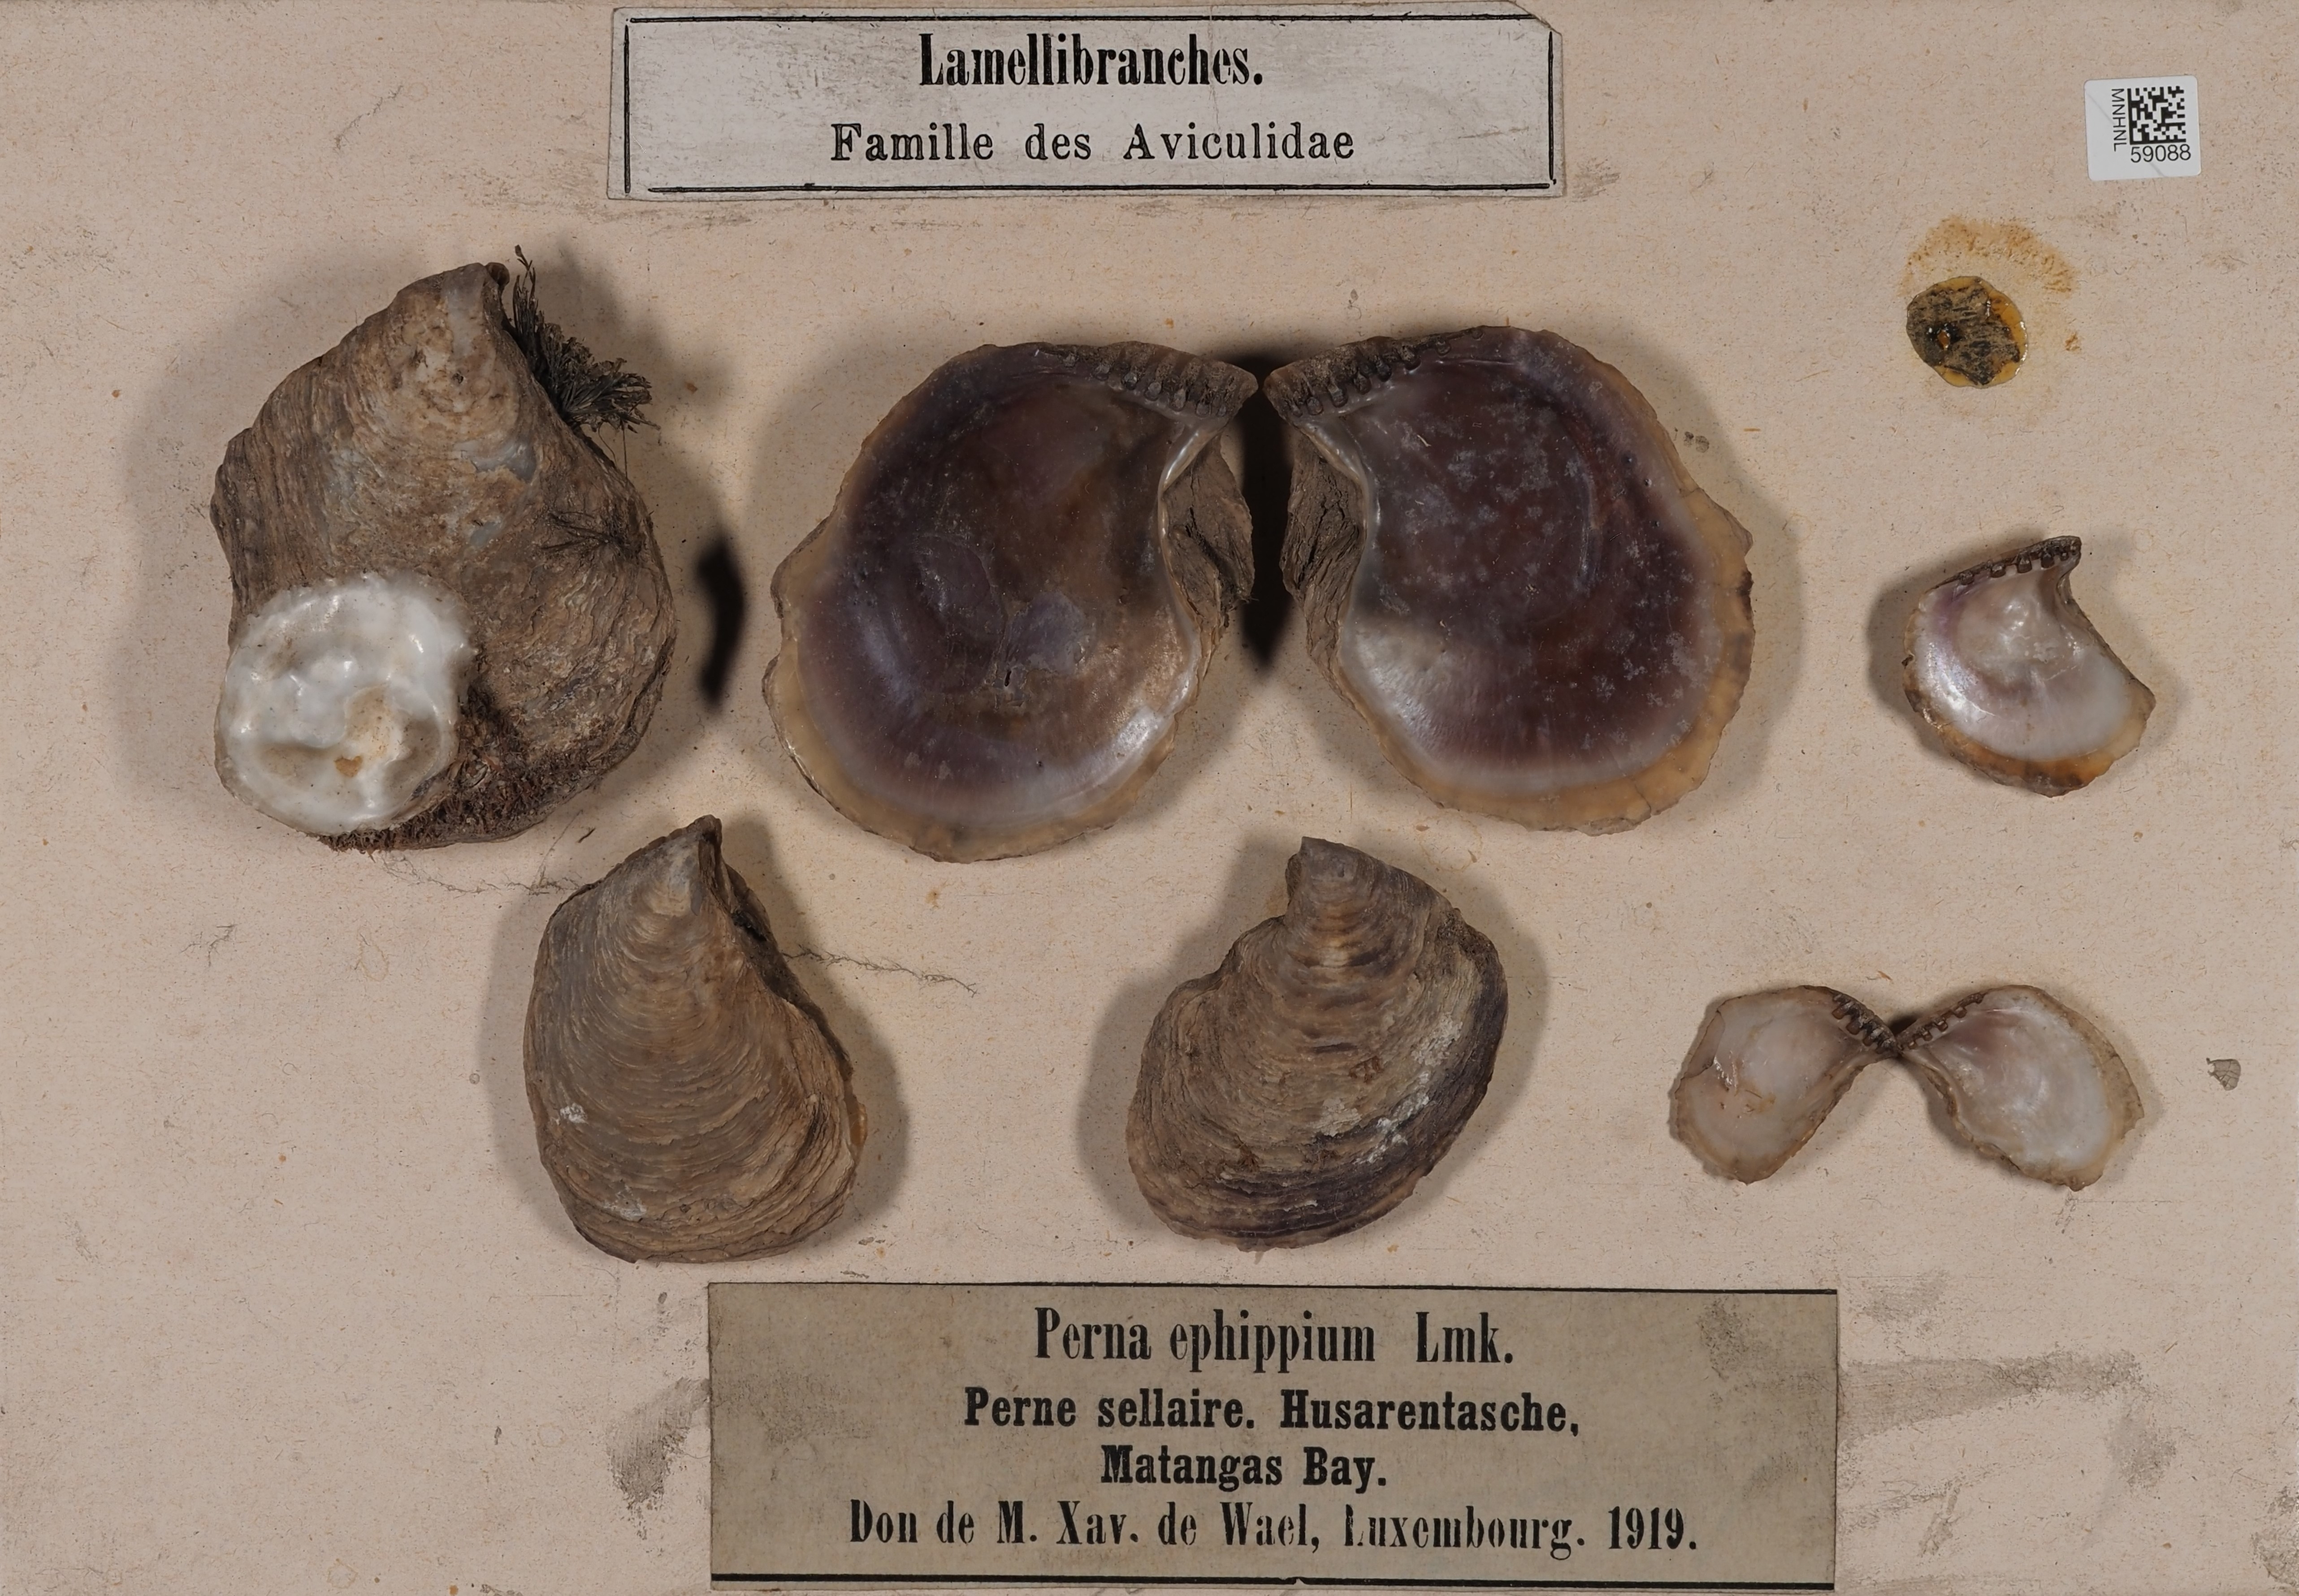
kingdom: Animalia
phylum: Mollusca
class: Bivalvia
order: Ostreida
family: Isognomonidae
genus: Isognomon
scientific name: Isognomon alatus
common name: Flat tree-oyster
